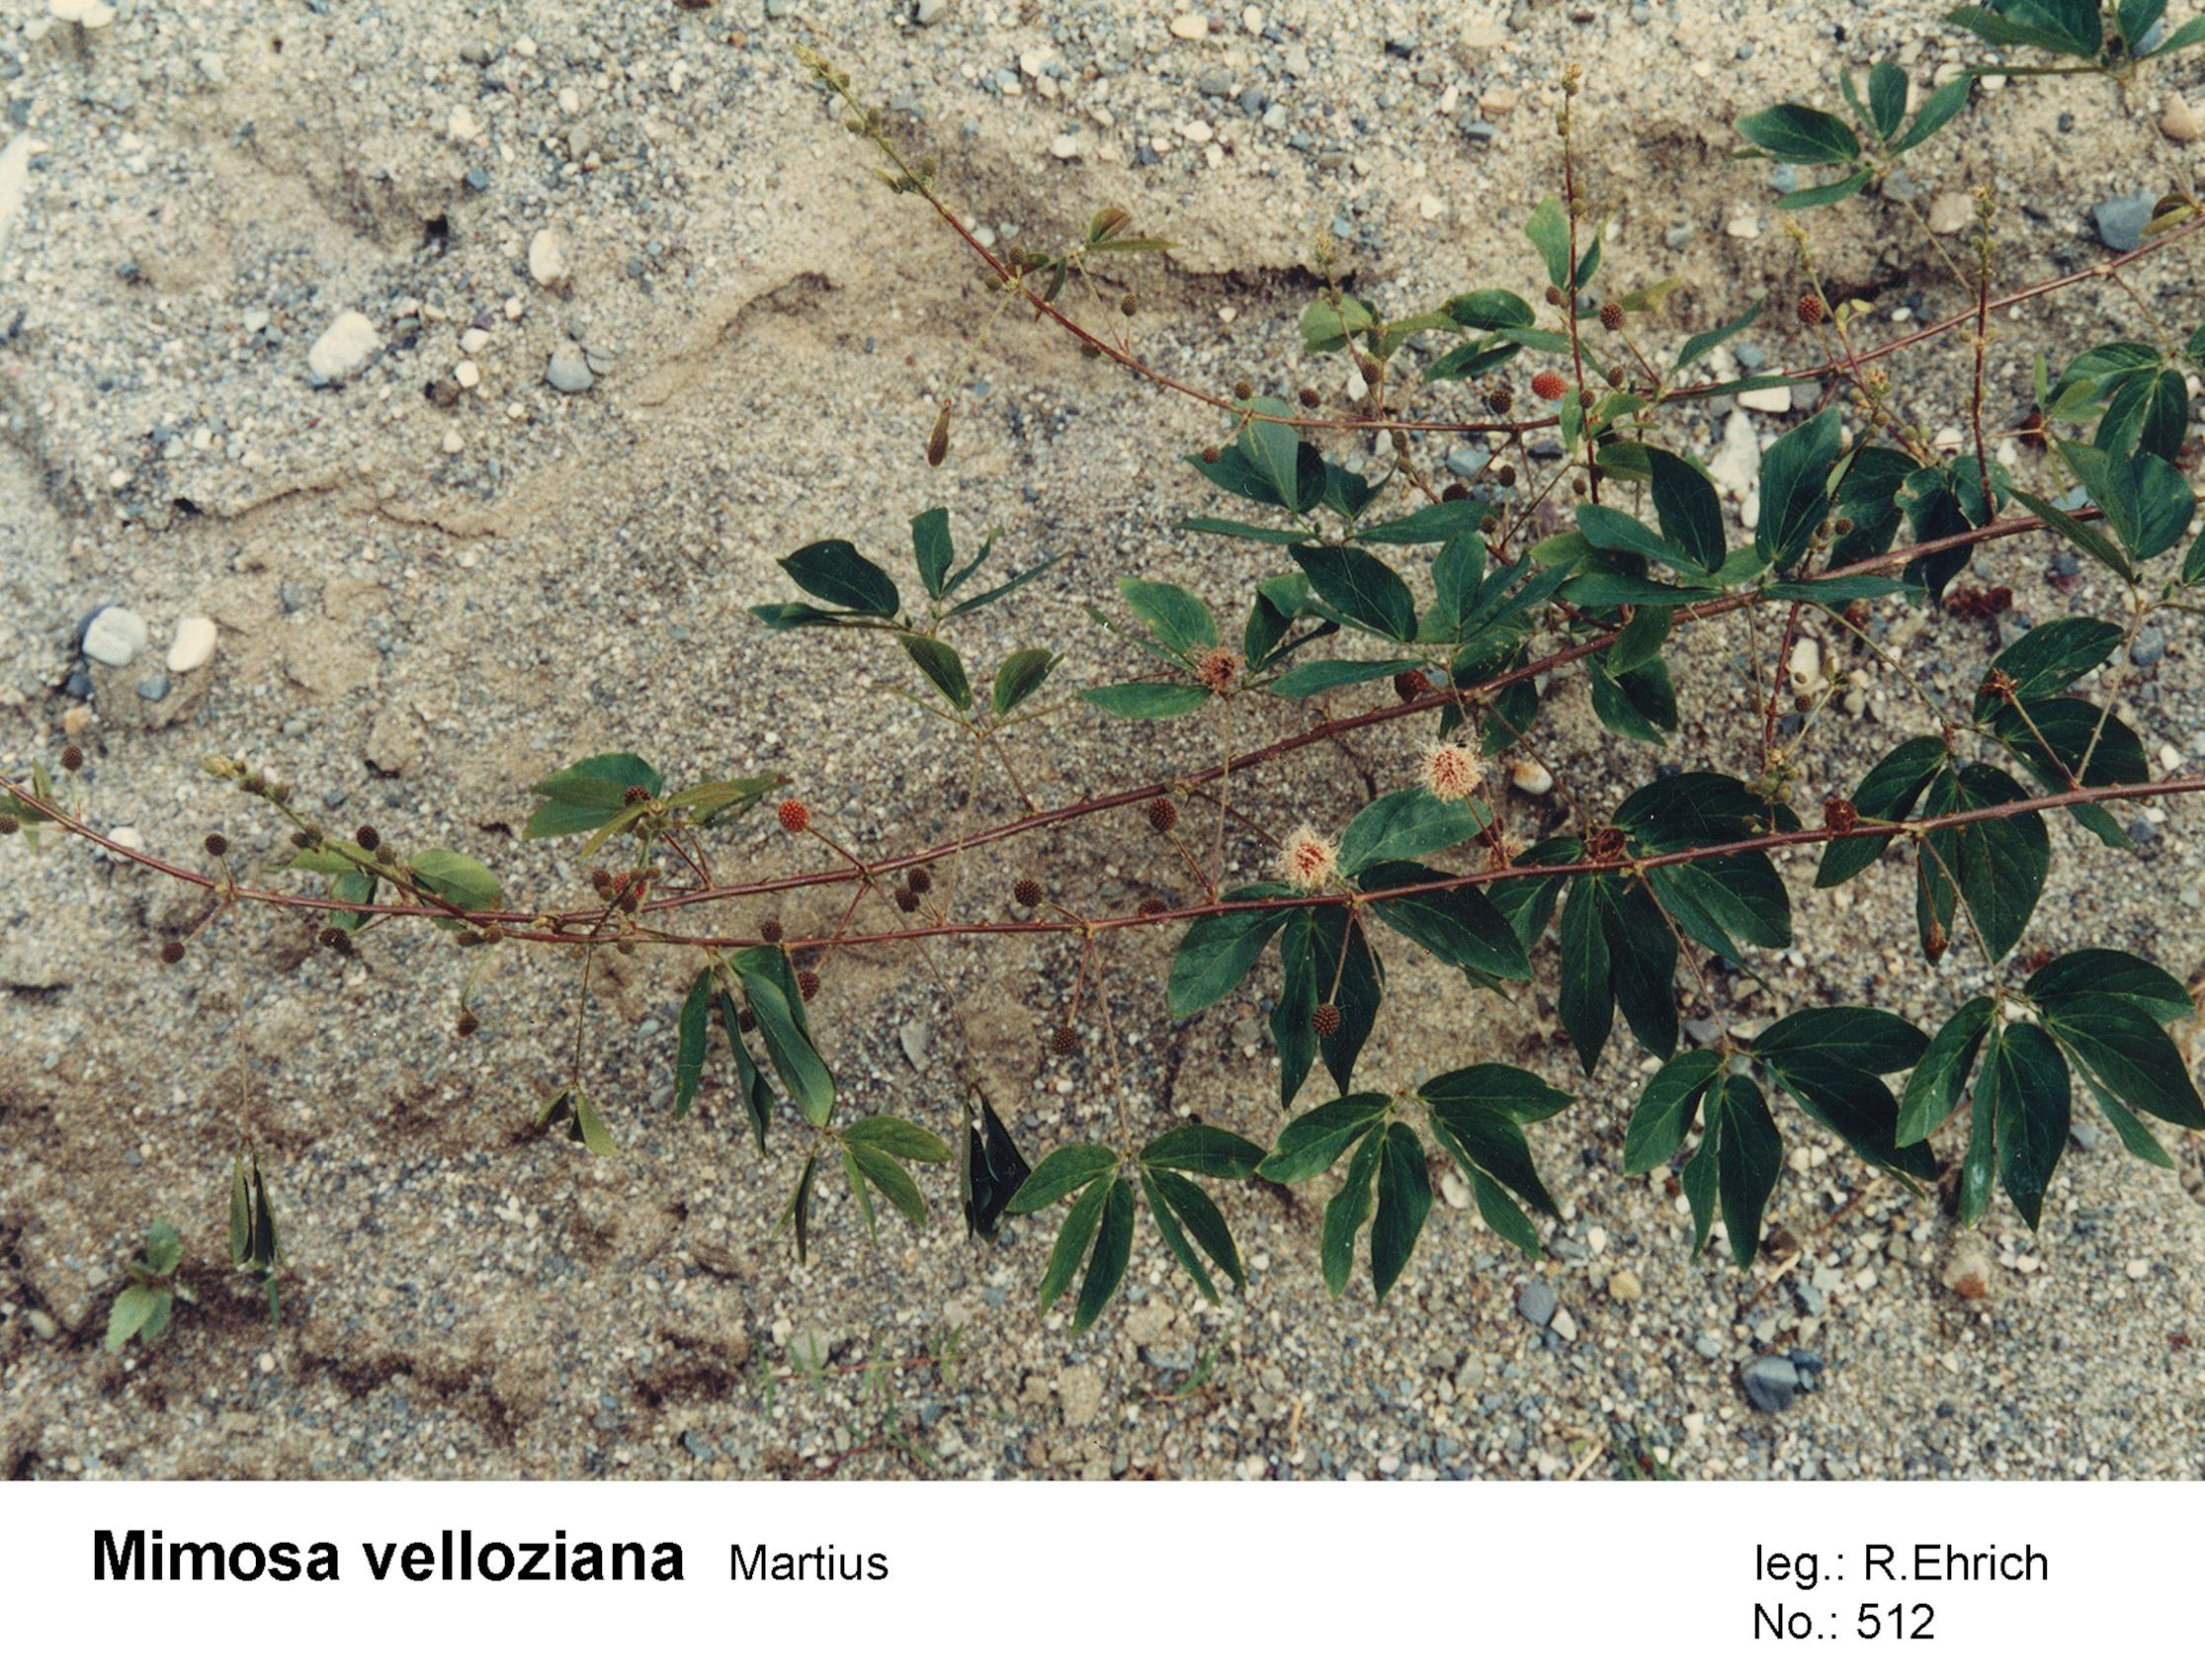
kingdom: Plantae
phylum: Tracheophyta
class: Magnoliopsida
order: Fabales
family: Fabaceae
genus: Mimosa
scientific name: Mimosa velloziana
